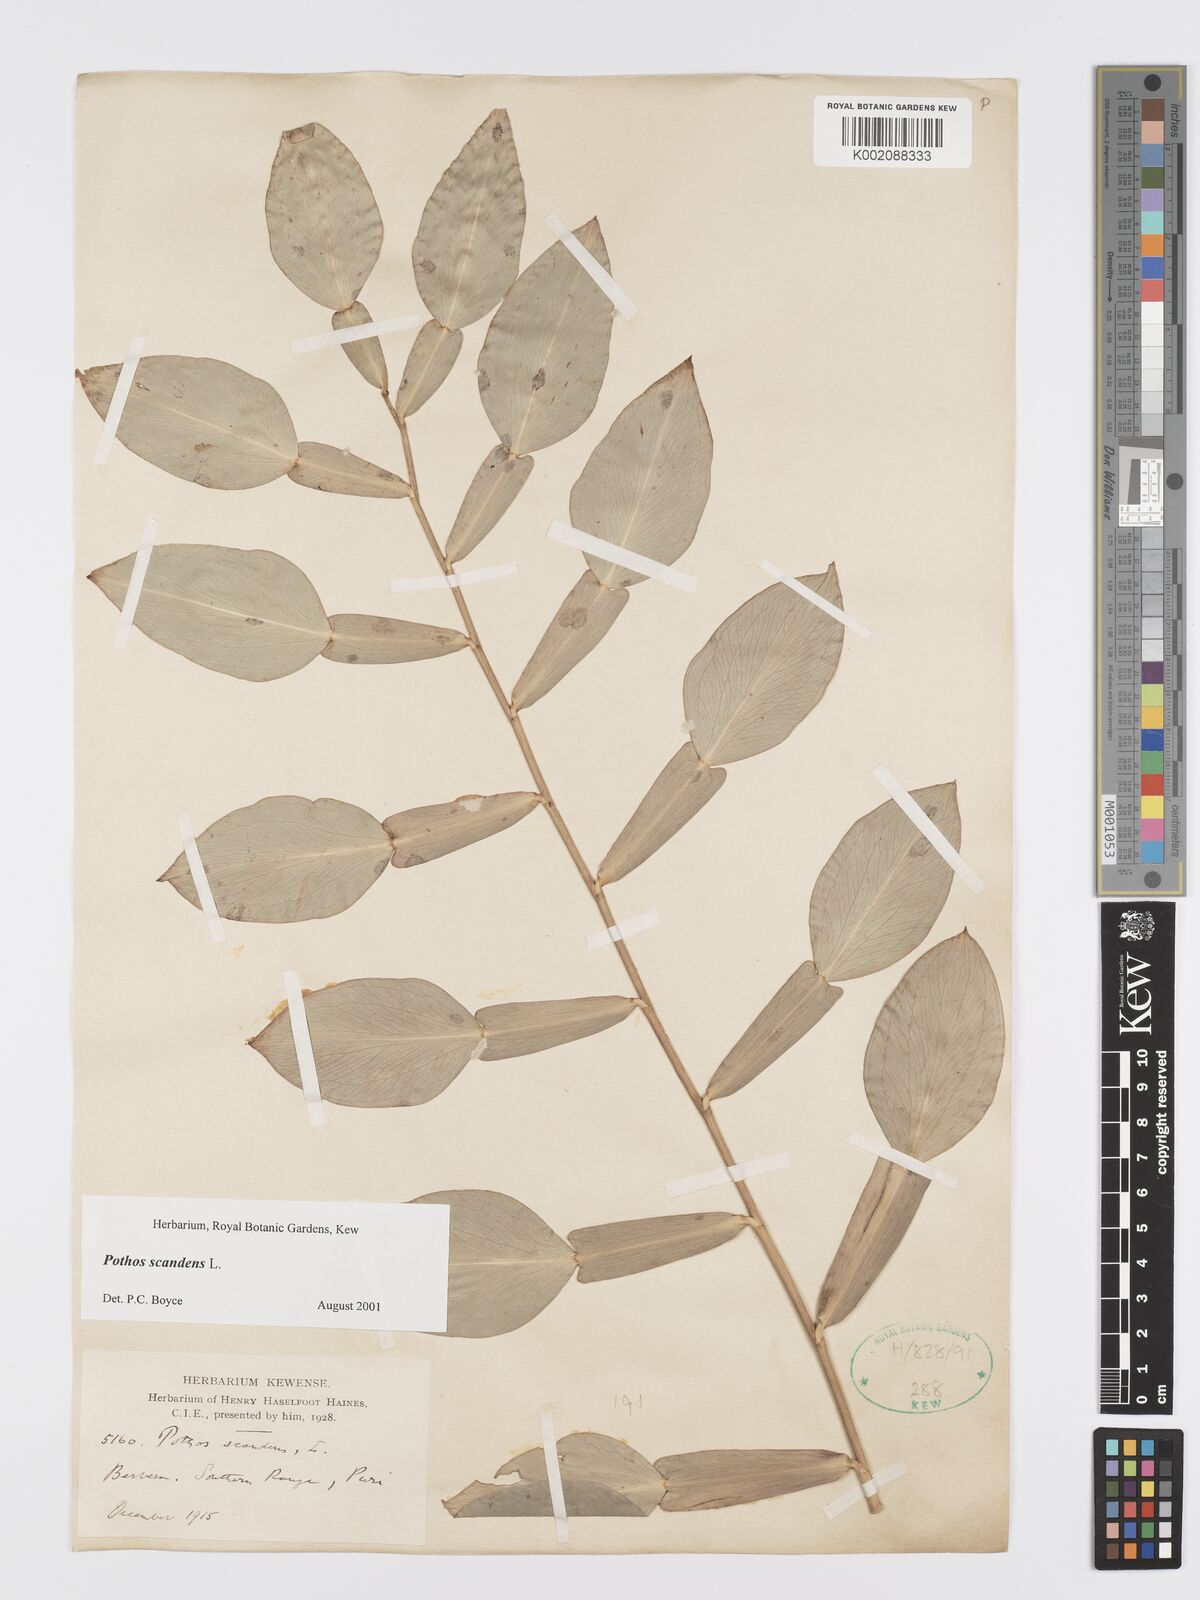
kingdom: Plantae
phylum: Tracheophyta
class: Liliopsida
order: Alismatales
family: Araceae
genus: Pothos
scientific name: Pothos scandens
